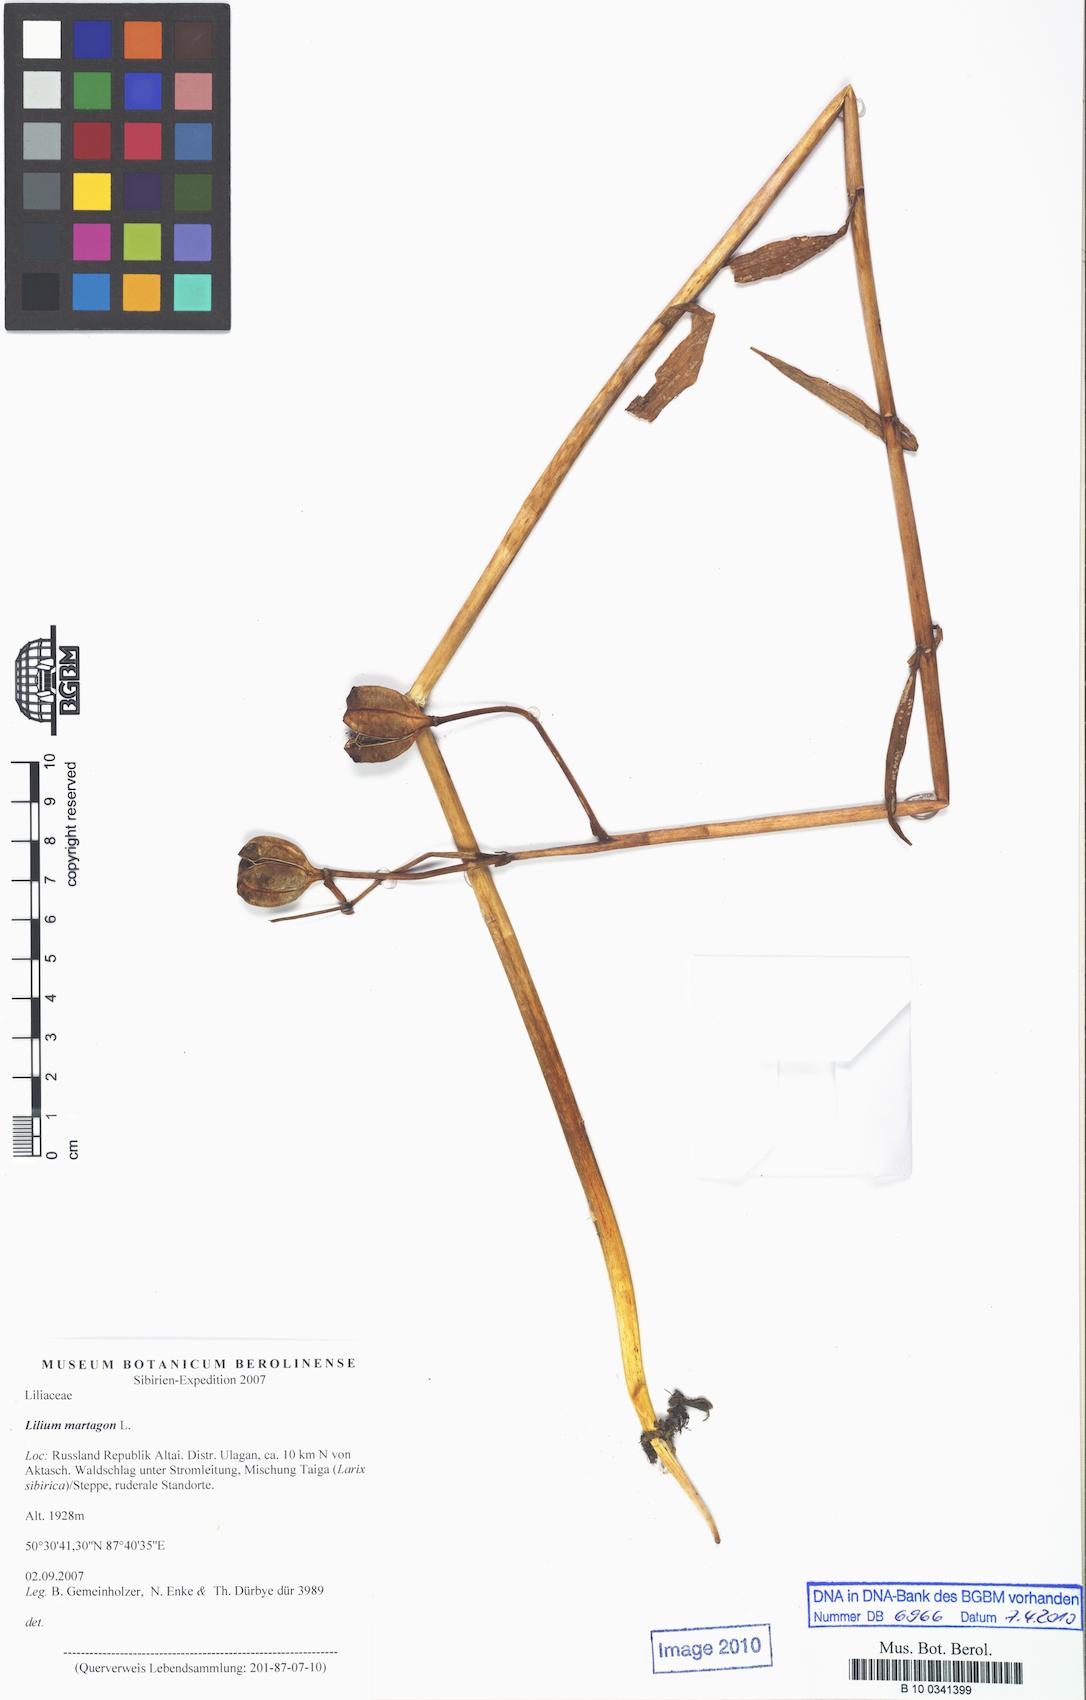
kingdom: Plantae
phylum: Tracheophyta
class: Liliopsida
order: Liliales
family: Liliaceae
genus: Lilium
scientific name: Lilium martagon
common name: Martagon lily
